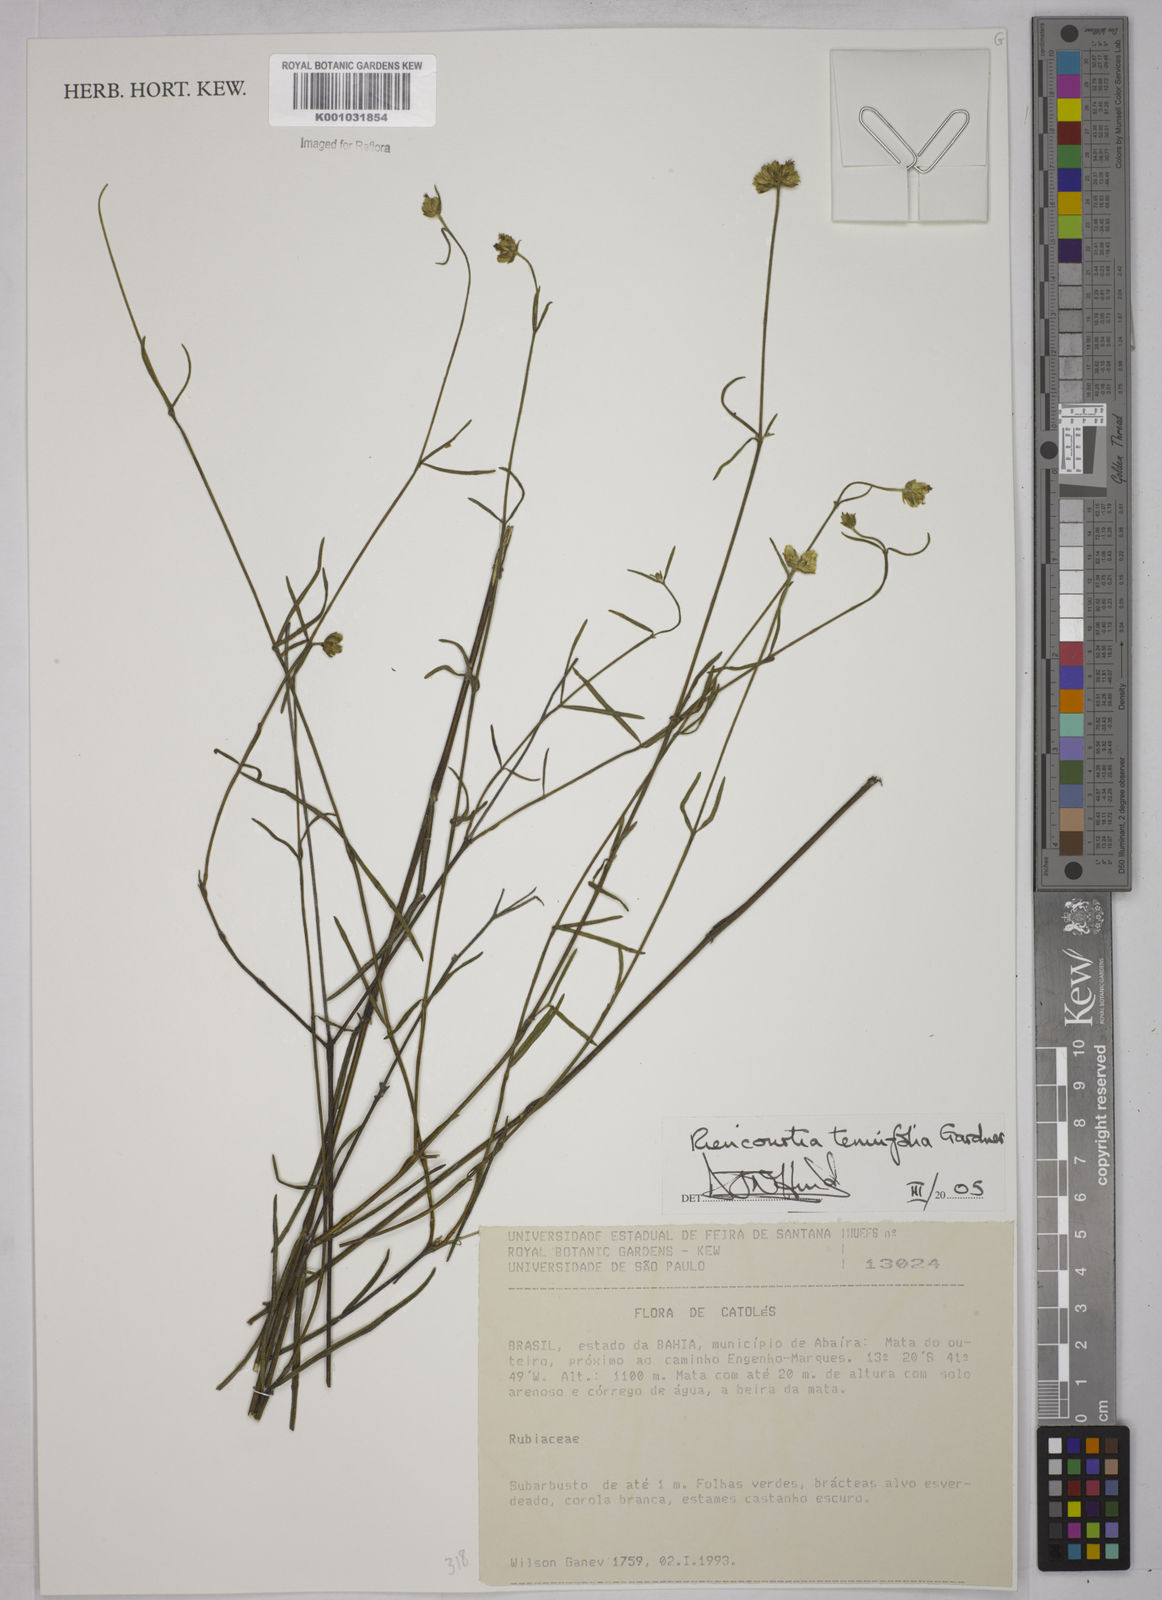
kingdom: Plantae
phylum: Tracheophyta
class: Magnoliopsida
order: Asterales
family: Asteraceae
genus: Riencourtia
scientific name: Riencourtia tenuifolia
